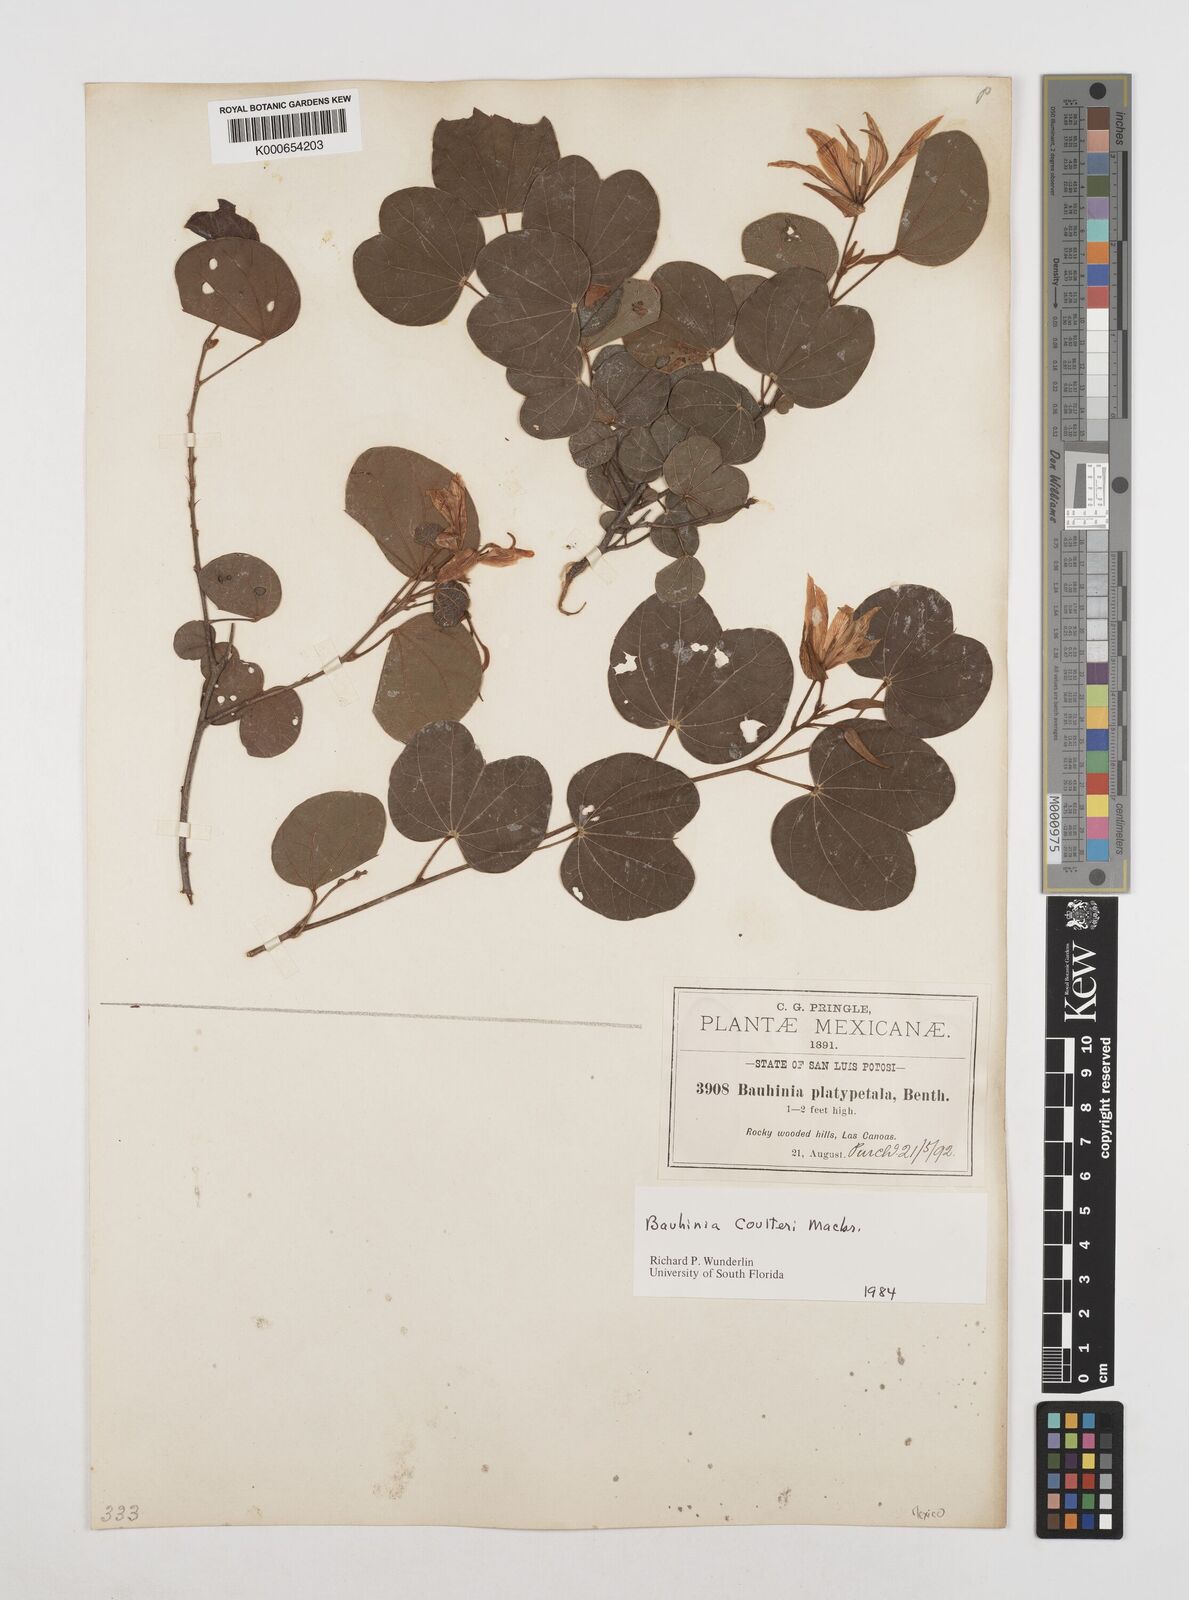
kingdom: Plantae
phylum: Tracheophyta
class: Magnoliopsida
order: Fabales
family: Fabaceae
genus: Bauhinia
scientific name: Bauhinia coulteri
